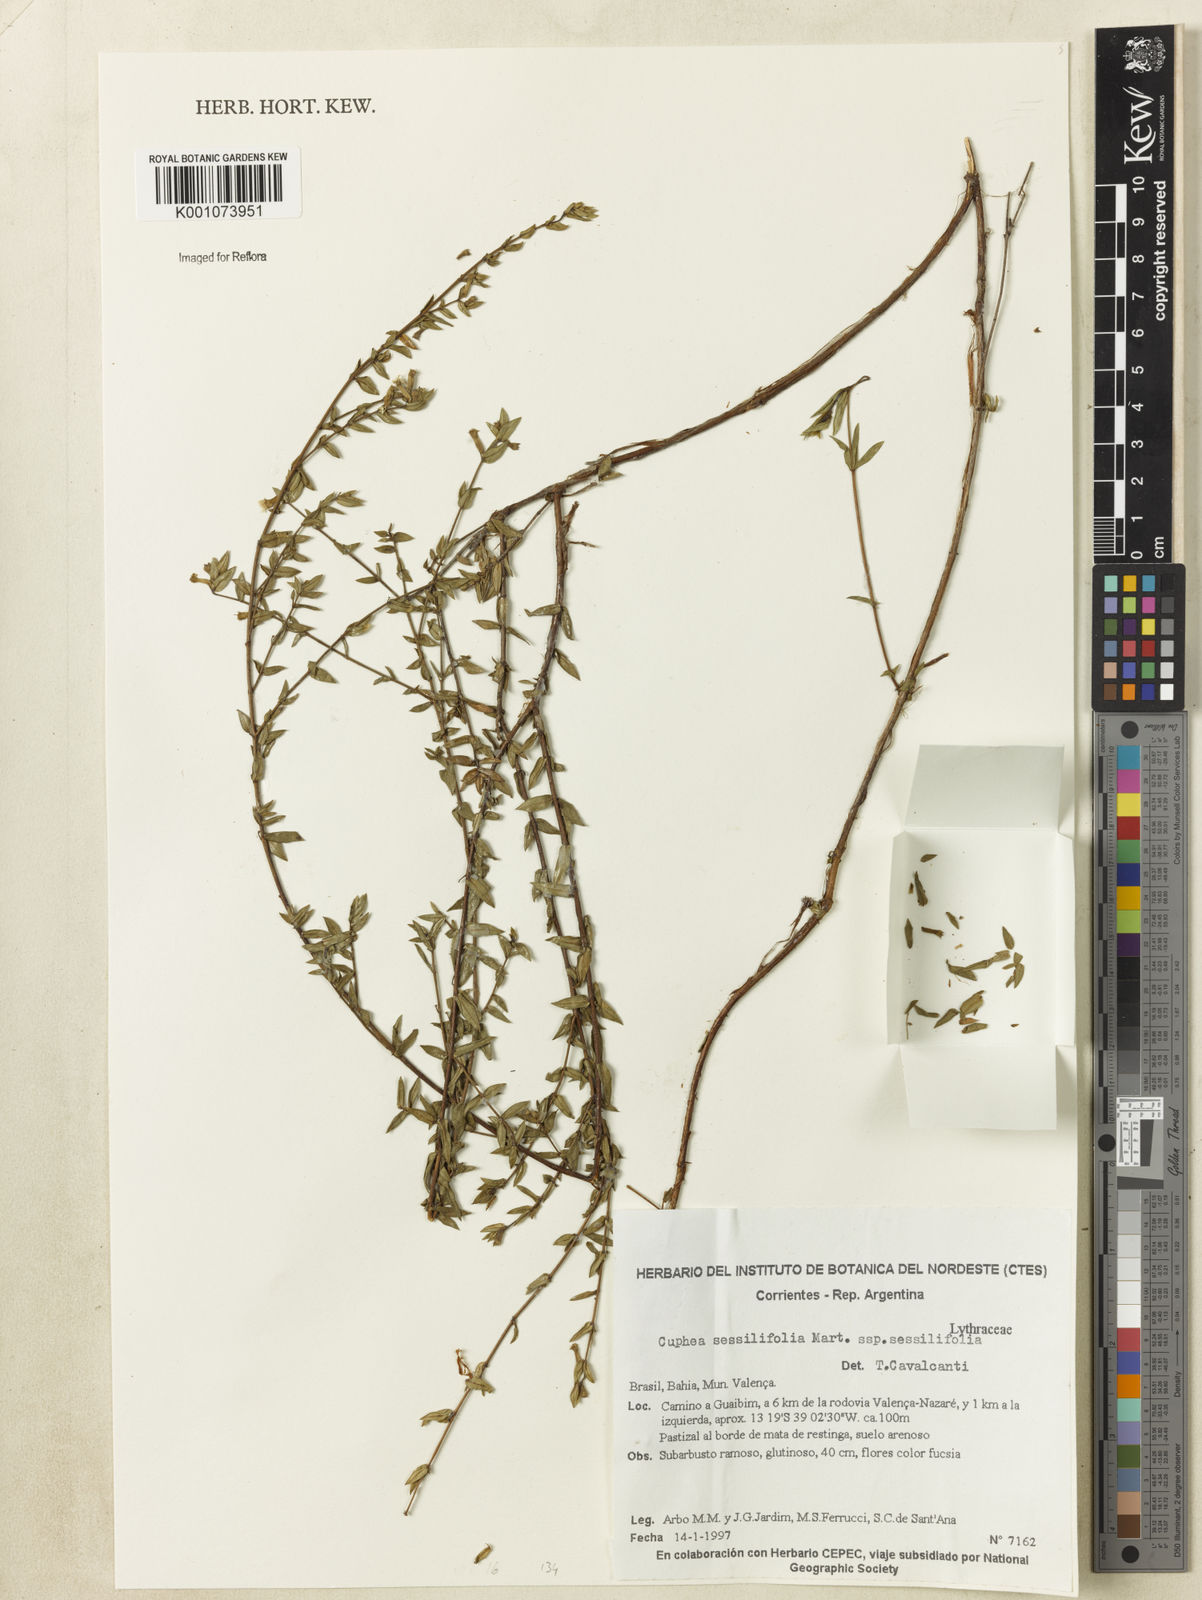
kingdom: Plantae
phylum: Tracheophyta
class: Magnoliopsida
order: Myrtales
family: Lythraceae
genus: Cuphea
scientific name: Cuphea sessiliflora
